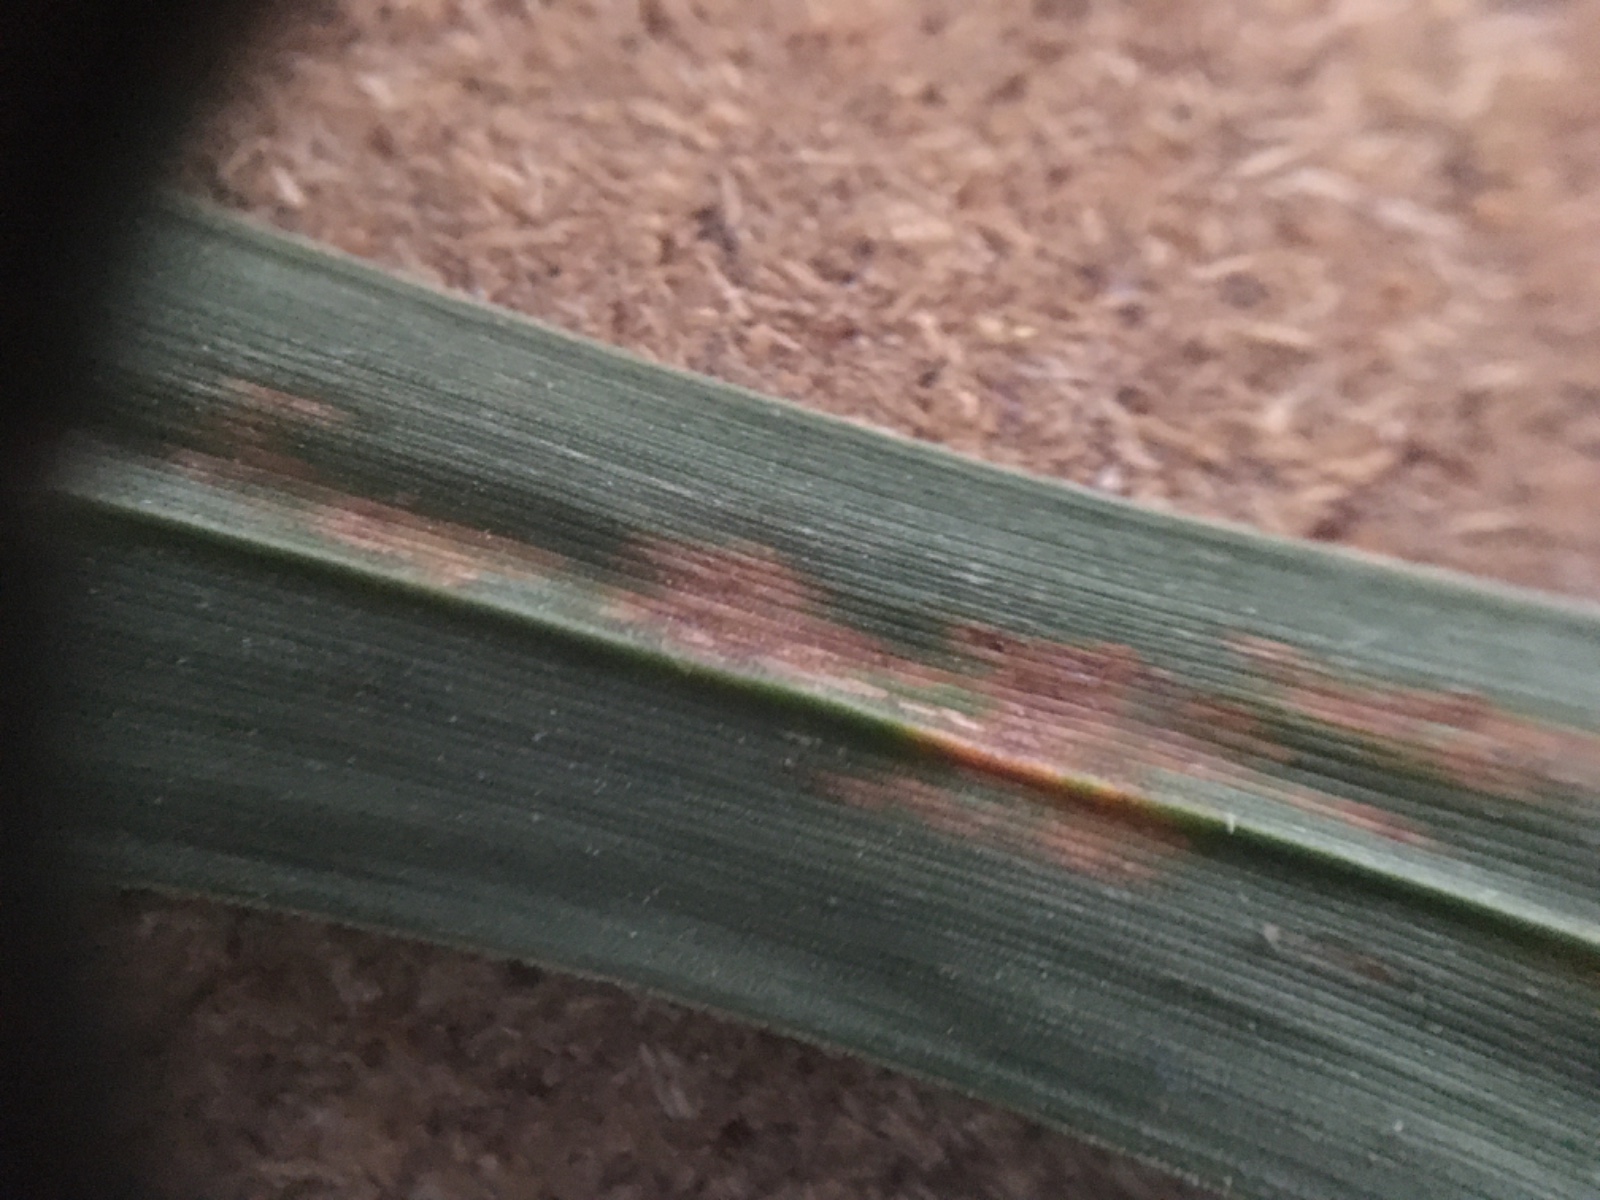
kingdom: Fungi
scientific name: Fungi
